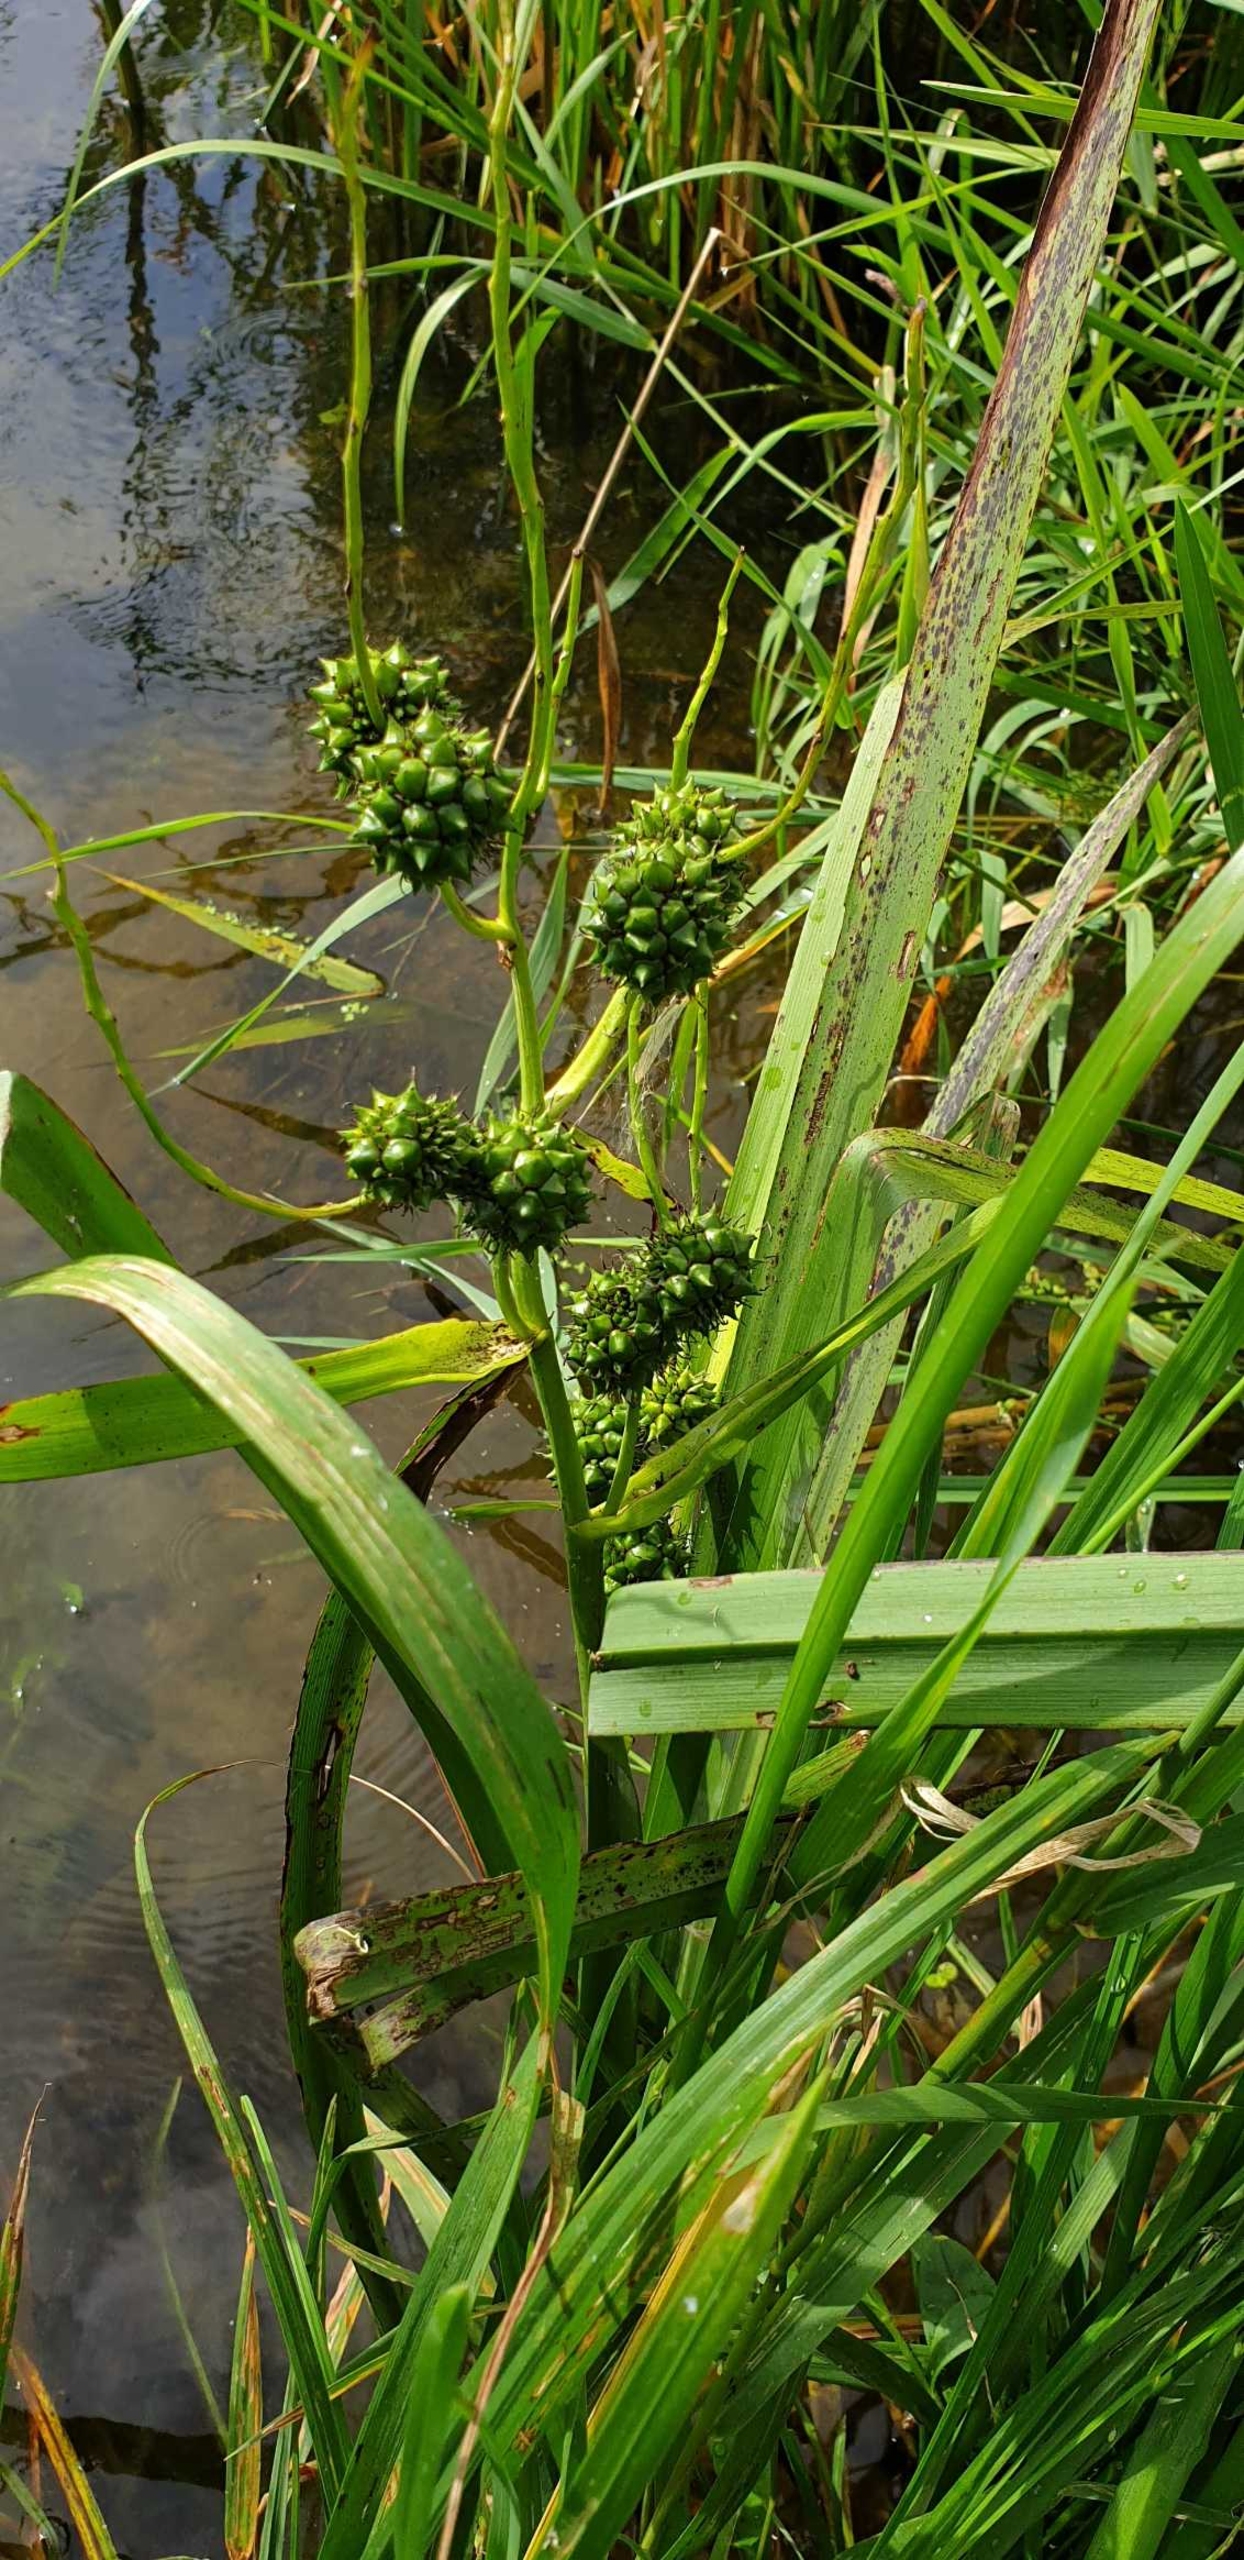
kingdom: Plantae
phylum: Tracheophyta
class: Liliopsida
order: Poales
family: Typhaceae
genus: Sparganium
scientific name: Sparganium erectum
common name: Sodfarvet pindsvineknop
